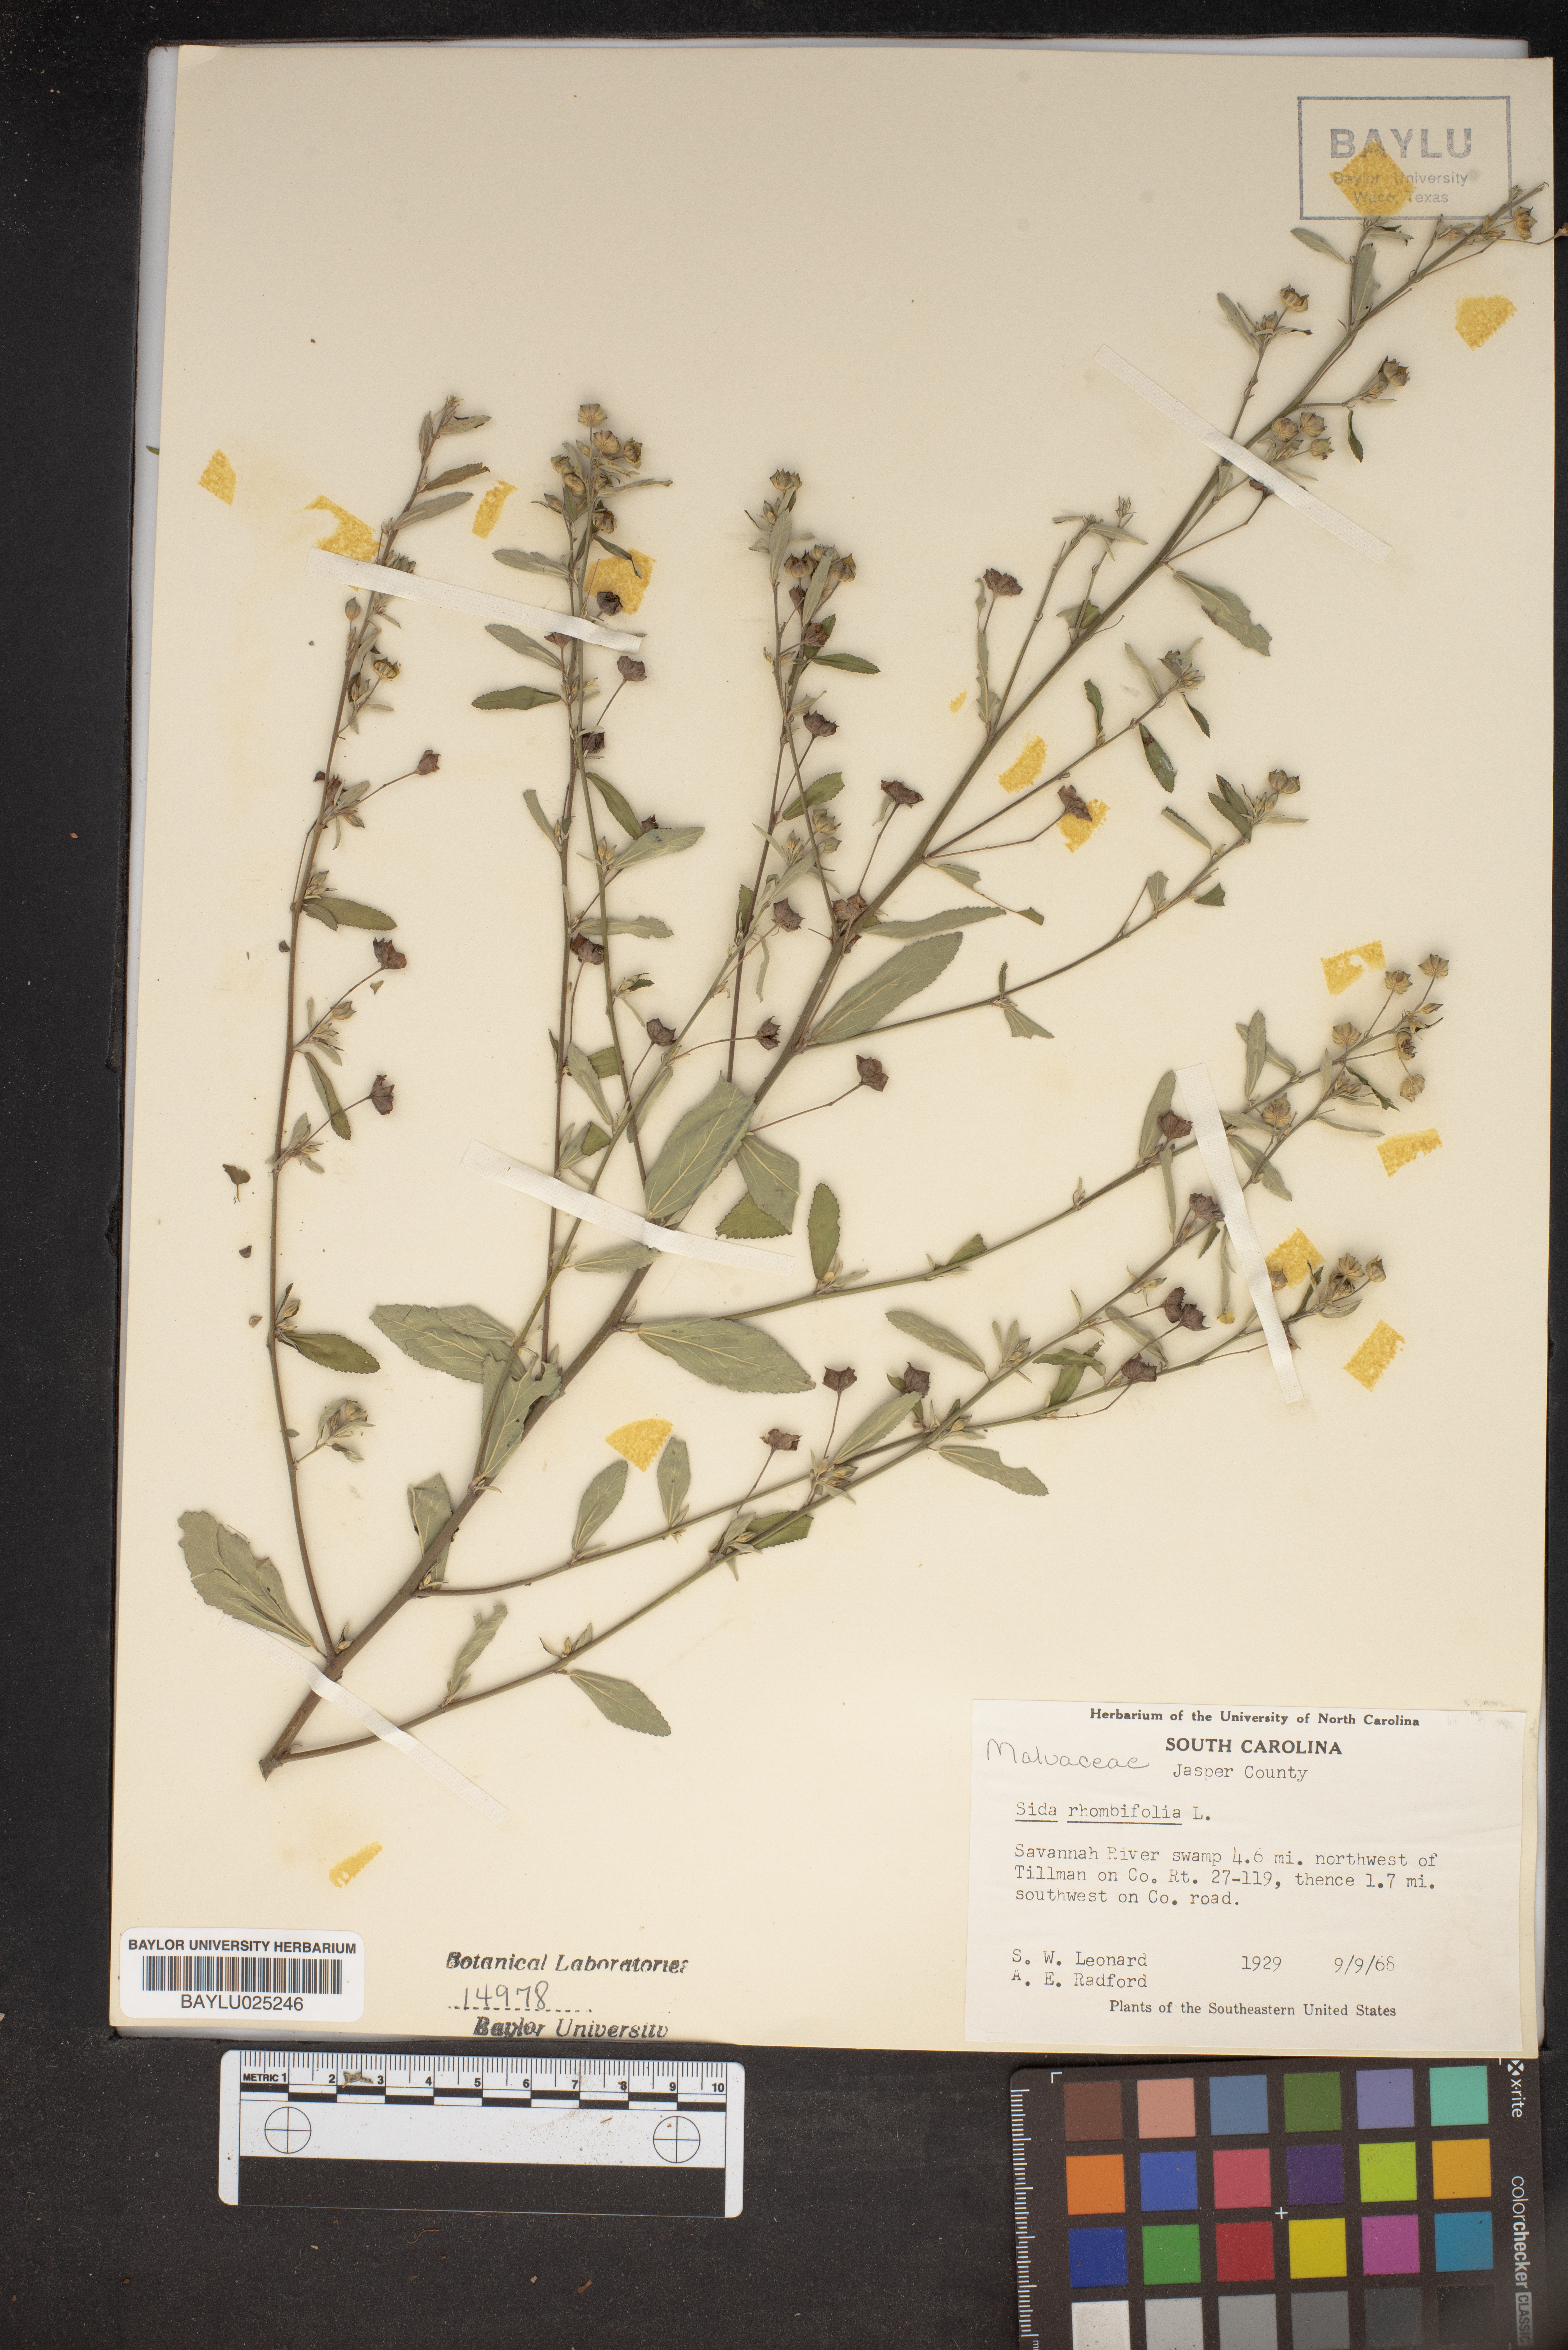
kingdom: Plantae
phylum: Tracheophyta
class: Magnoliopsida
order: Malvales
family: Malvaceae
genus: Sida
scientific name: Sida rhombifolia
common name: Queensland-hemp
